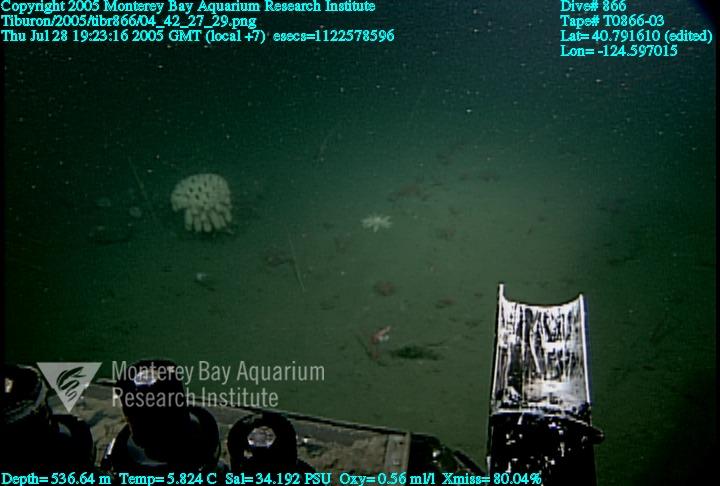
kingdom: Animalia
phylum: Porifera
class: Hexactinellida
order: Sceptrulophora
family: Aphrocallistidae
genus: Heterochone
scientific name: Heterochone calyx
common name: Fingered goblet glass sponge
